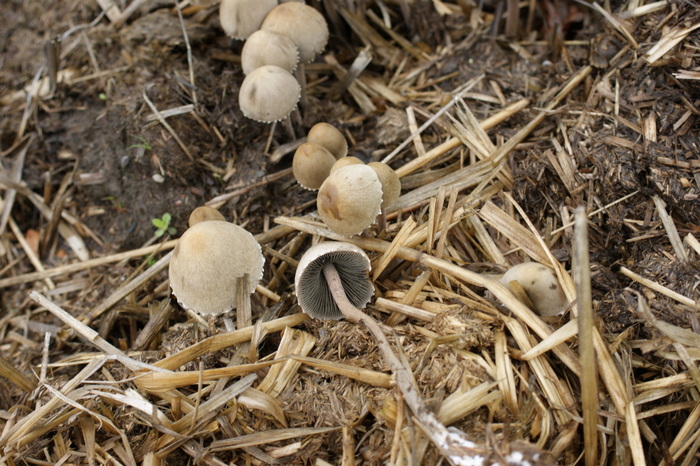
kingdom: Fungi
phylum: Basidiomycota
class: Agaricomycetes
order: Agaricales
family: Bolbitiaceae
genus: Panaeolus
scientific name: Panaeolus papilionaceus
